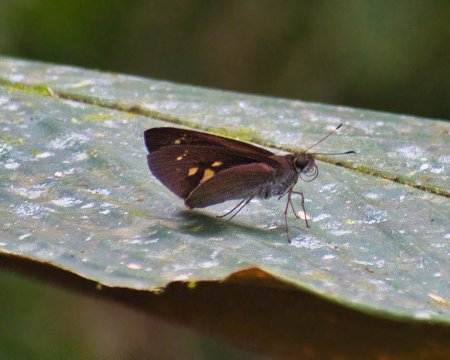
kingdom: Animalia
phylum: Arthropoda
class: Insecta
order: Lepidoptera
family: Hesperiidae
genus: Damas
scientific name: Damas clavus
